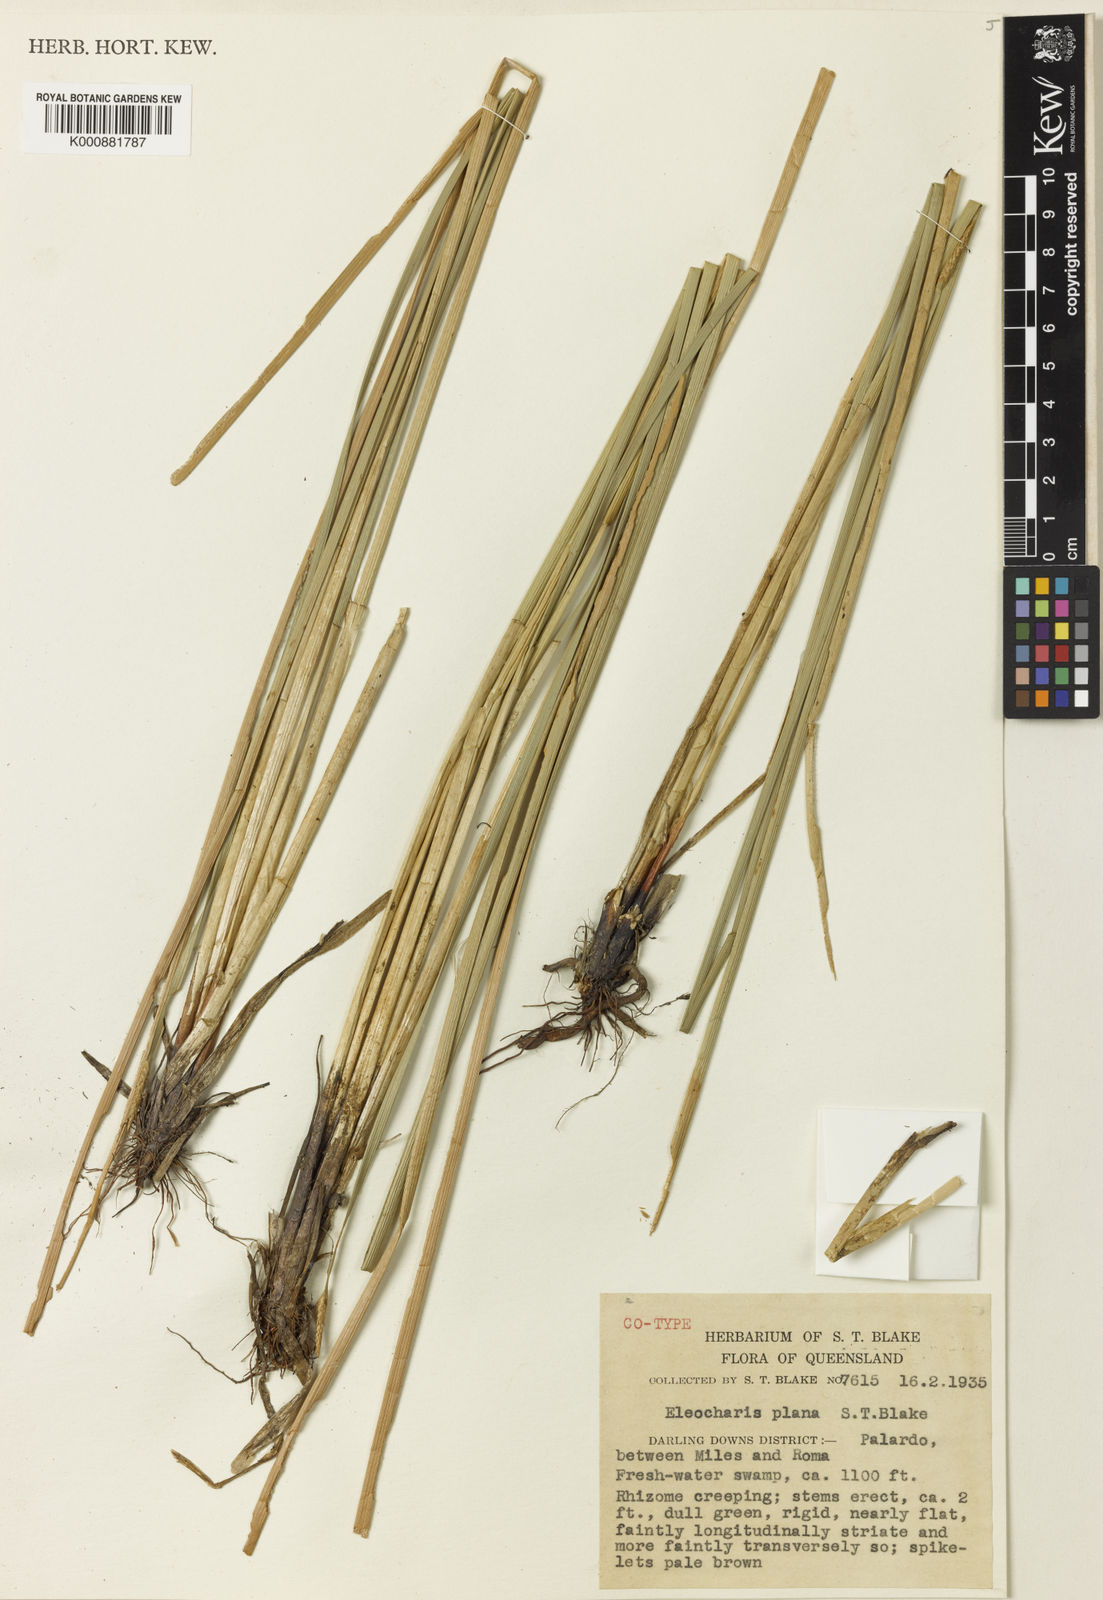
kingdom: Plantae
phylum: Tracheophyta
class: Liliopsida
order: Poales
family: Cyperaceae
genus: Eleocharis
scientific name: Eleocharis plana
